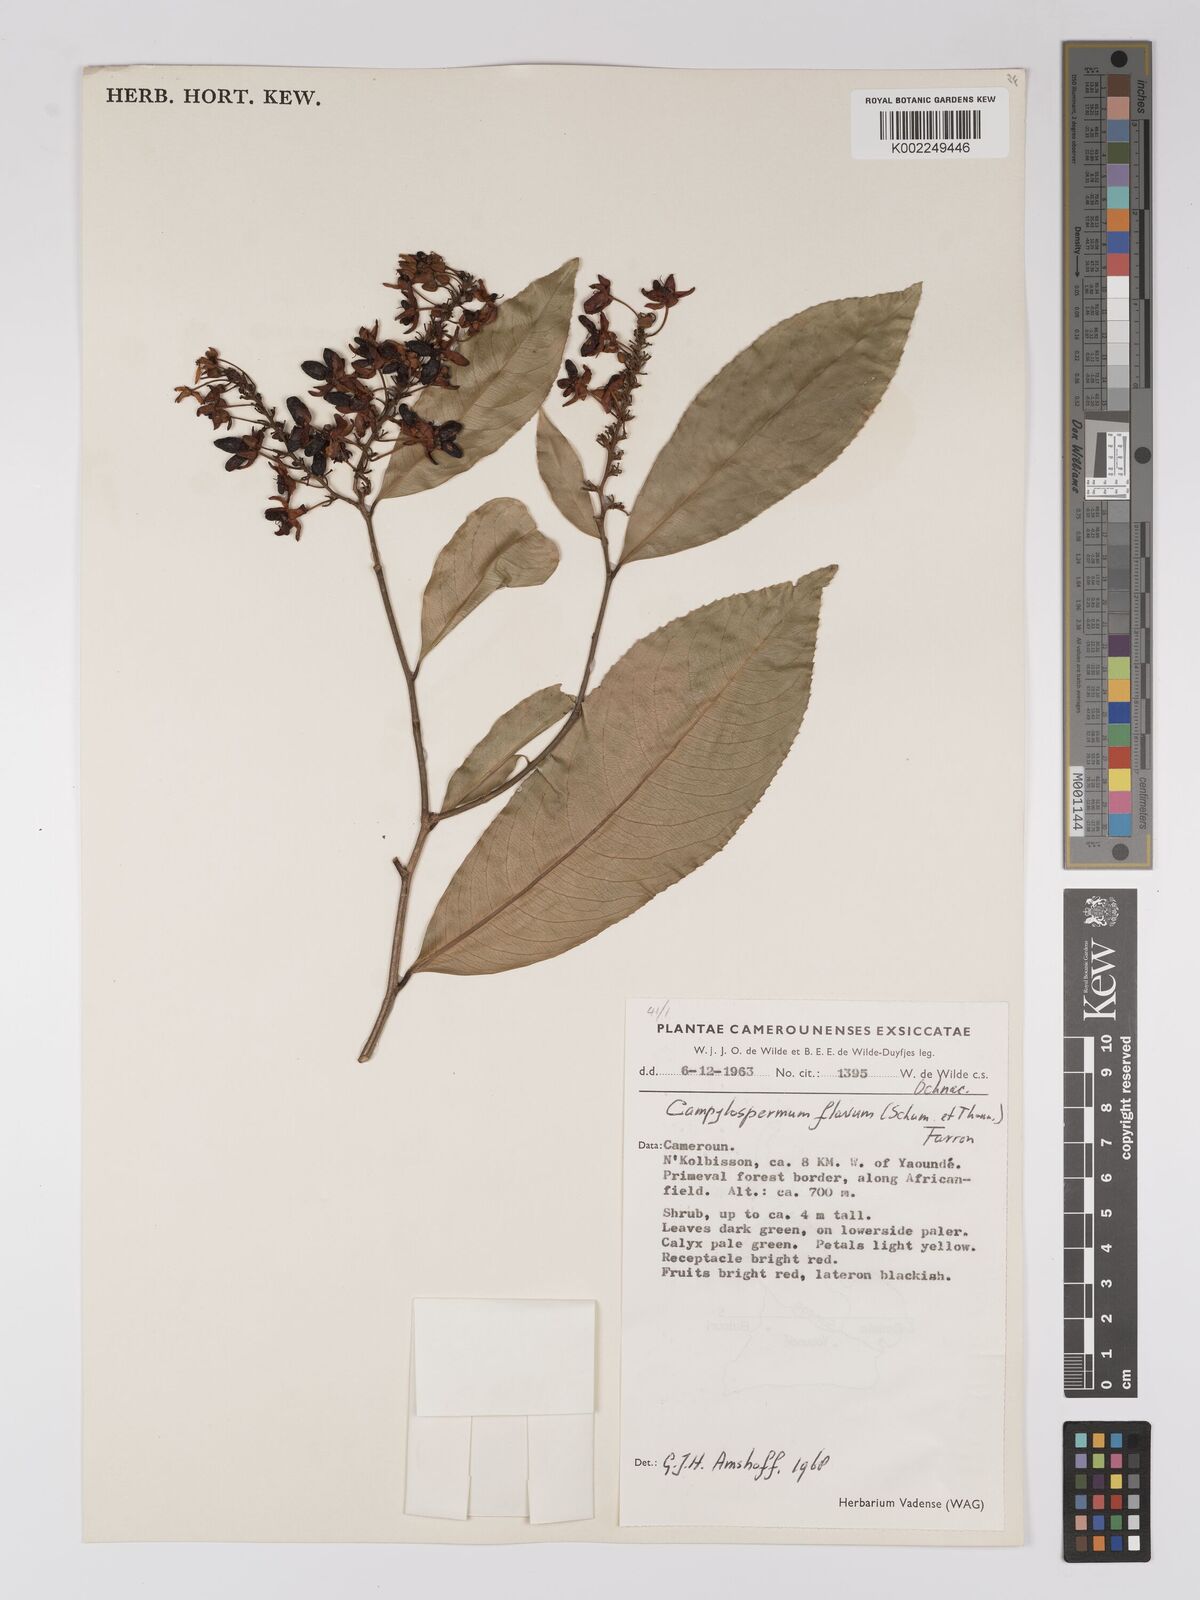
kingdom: Plantae
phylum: Tracheophyta
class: Magnoliopsida
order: Malpighiales
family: Ochnaceae
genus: Campylospermum
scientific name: Campylospermum flavum
